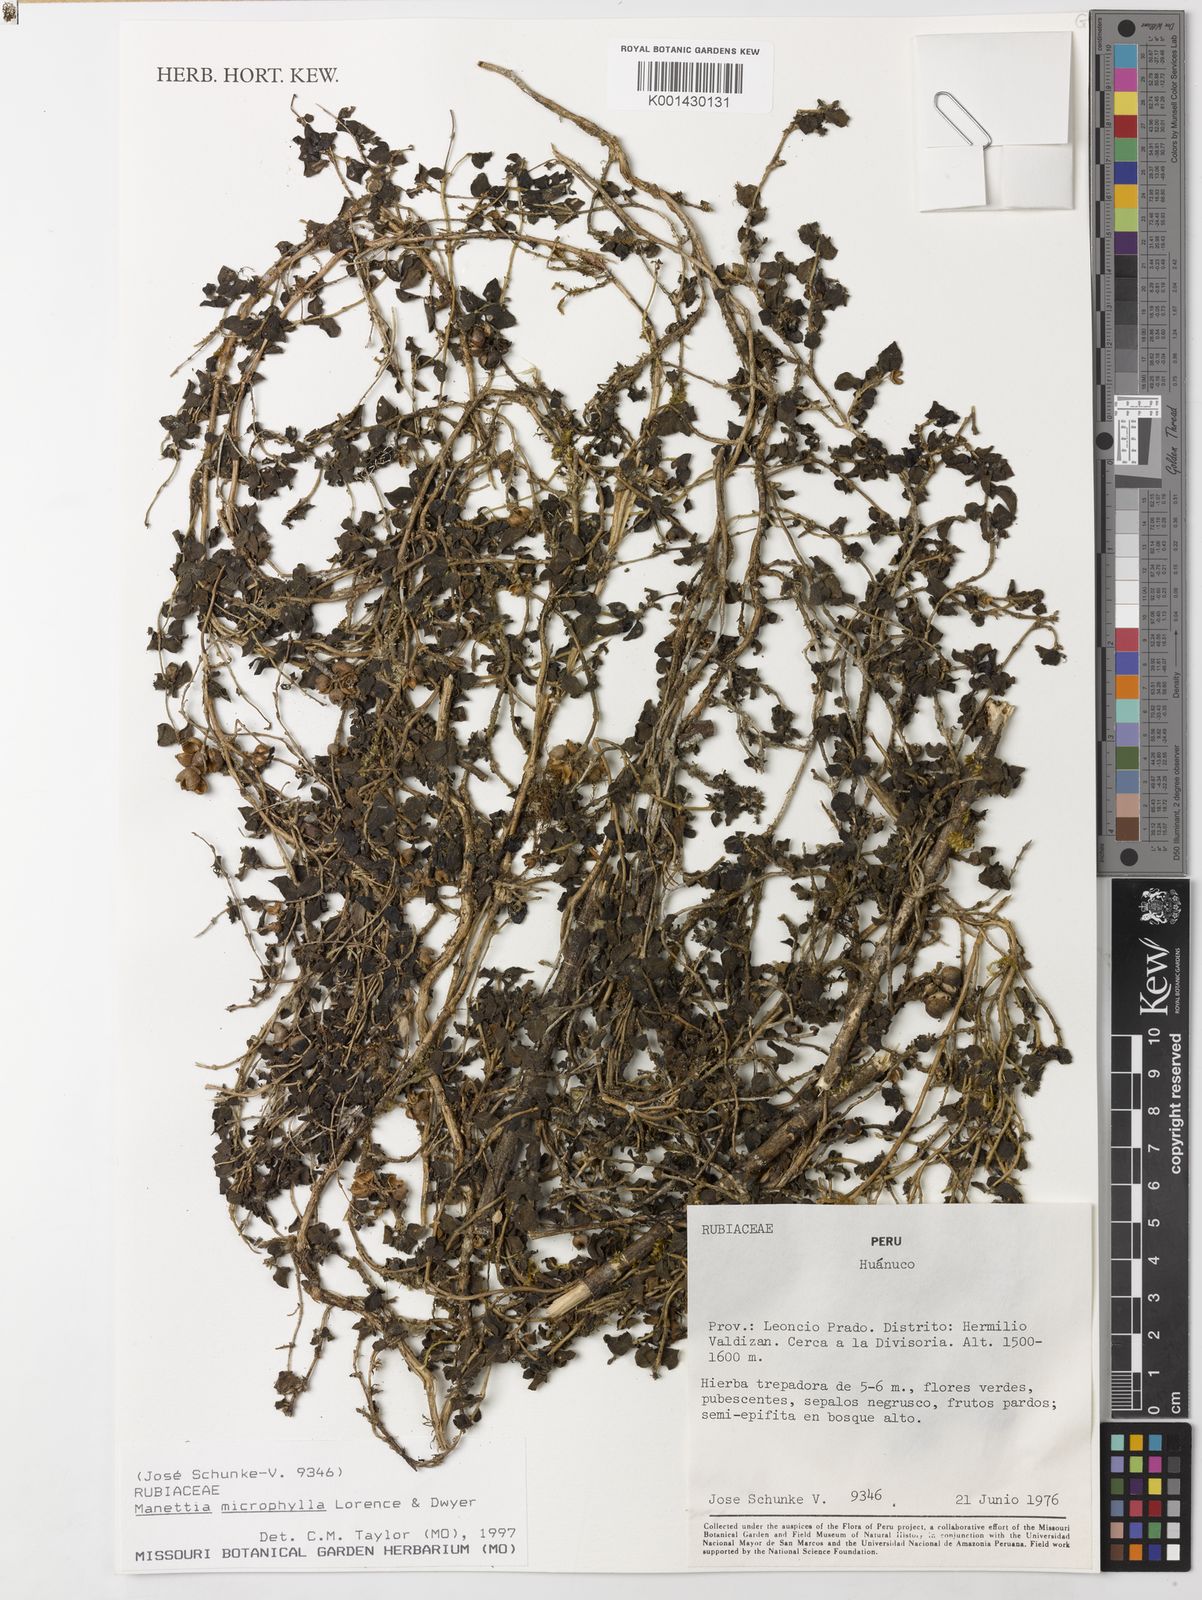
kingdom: Plantae
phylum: Tracheophyta
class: Magnoliopsida
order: Gentianales
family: Rubiaceae
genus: Manettia
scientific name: Manettia microphylla
